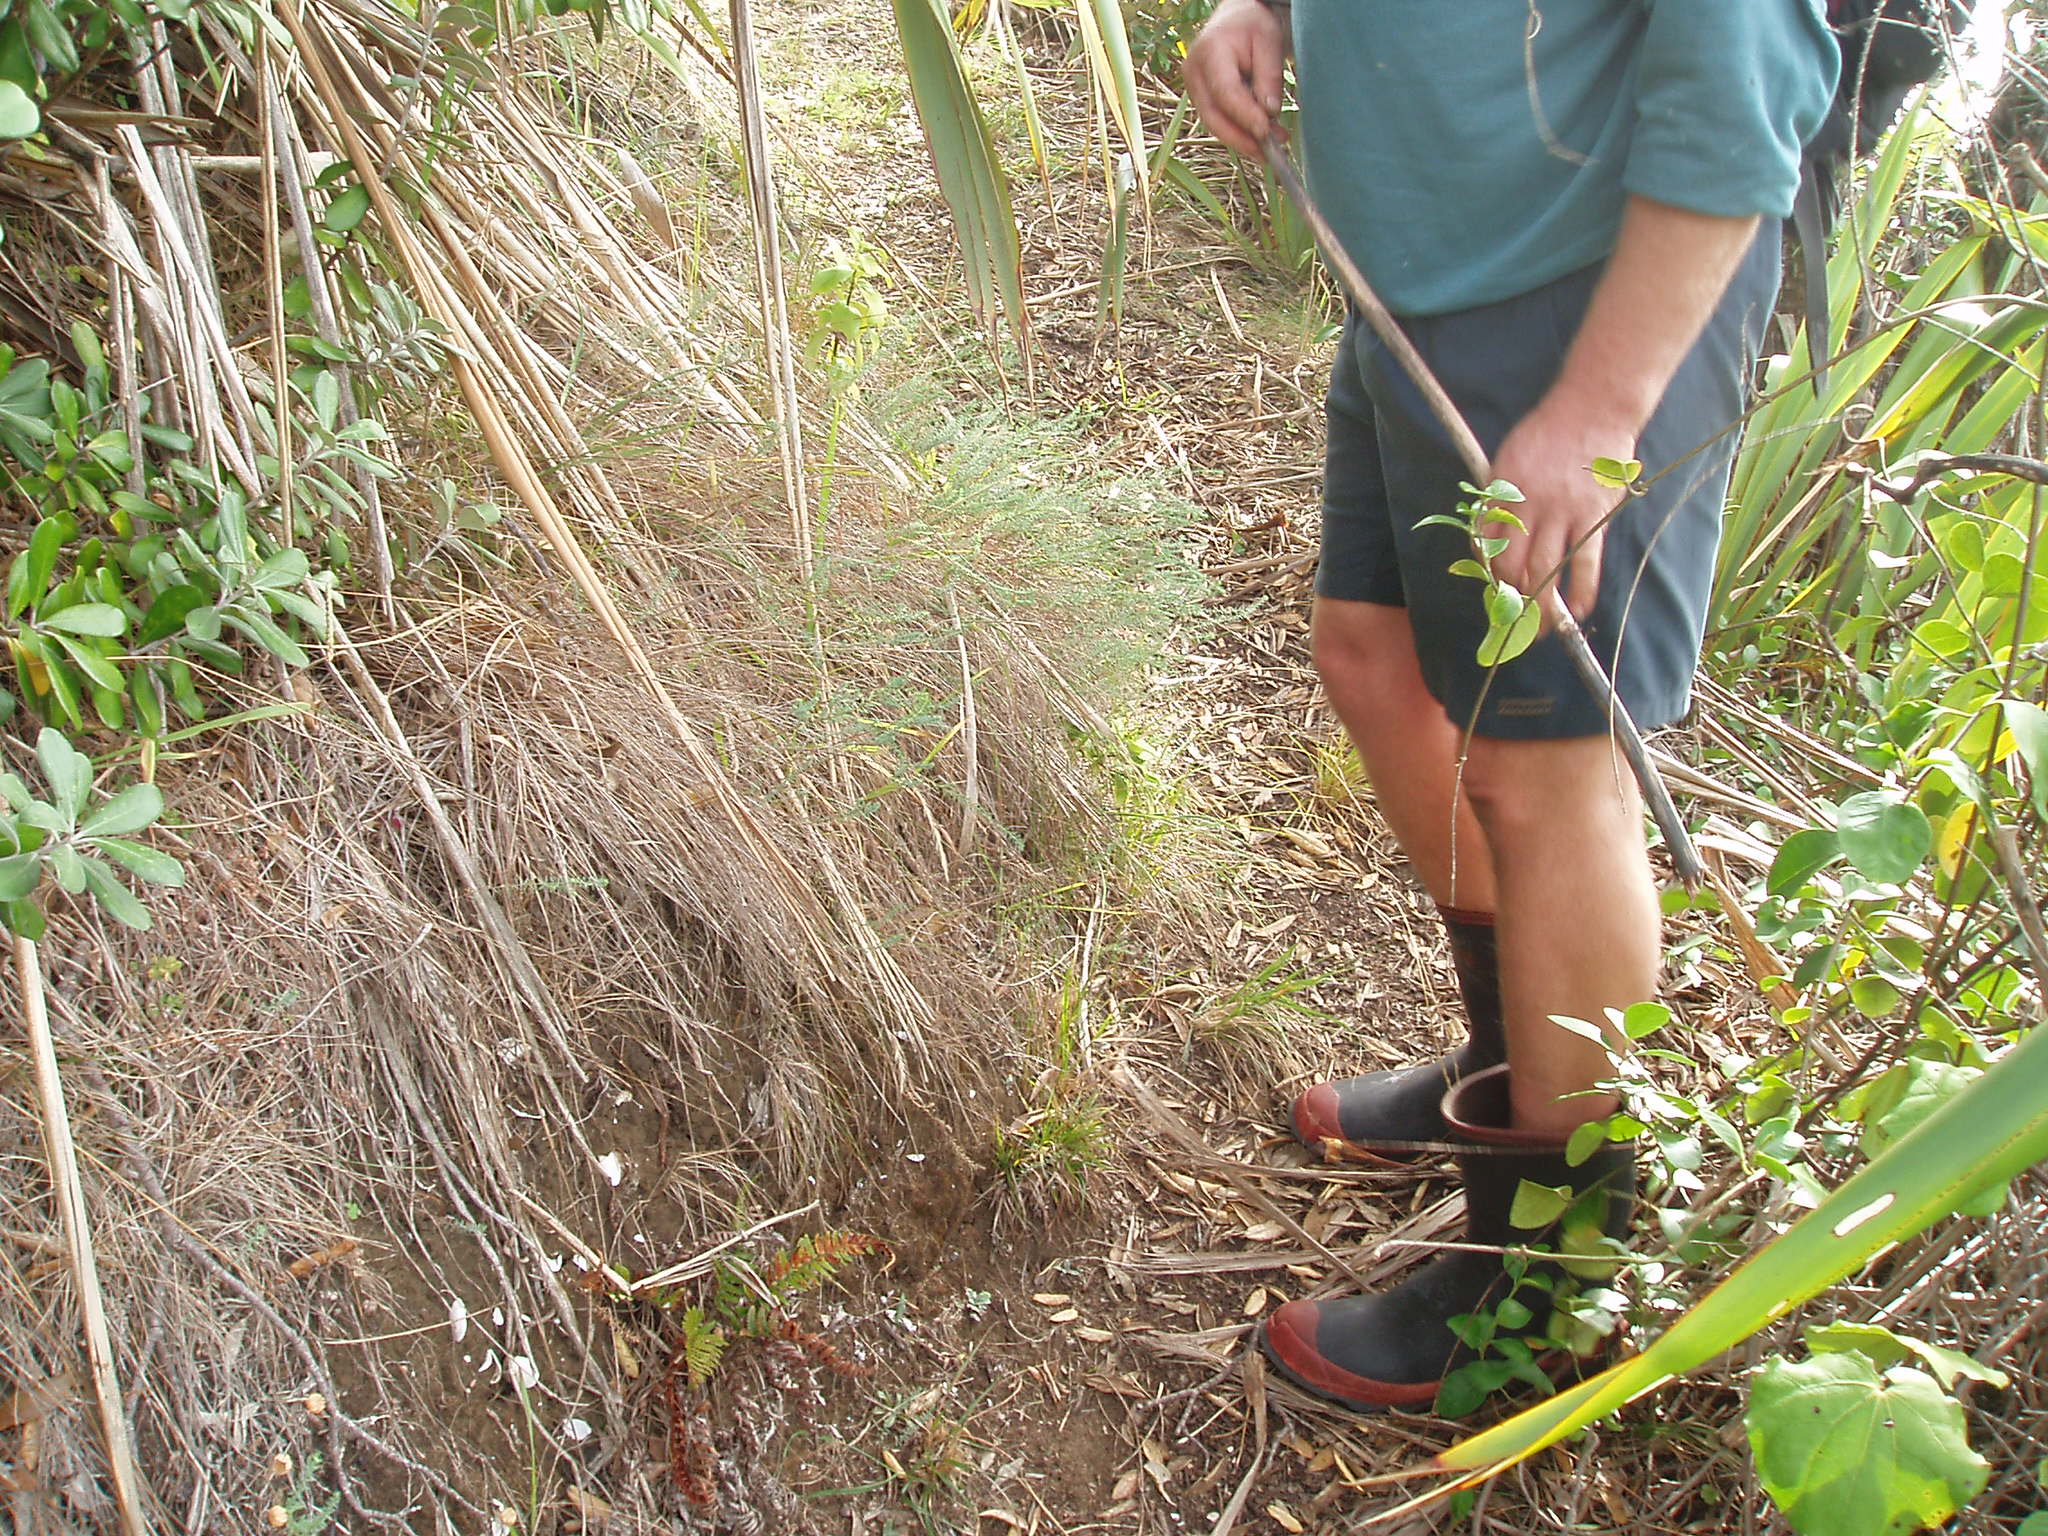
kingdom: Plantae
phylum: Tracheophyta
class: Magnoliopsida
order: Malpighiales
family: Linaceae
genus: Linum
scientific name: Linum monogynum
